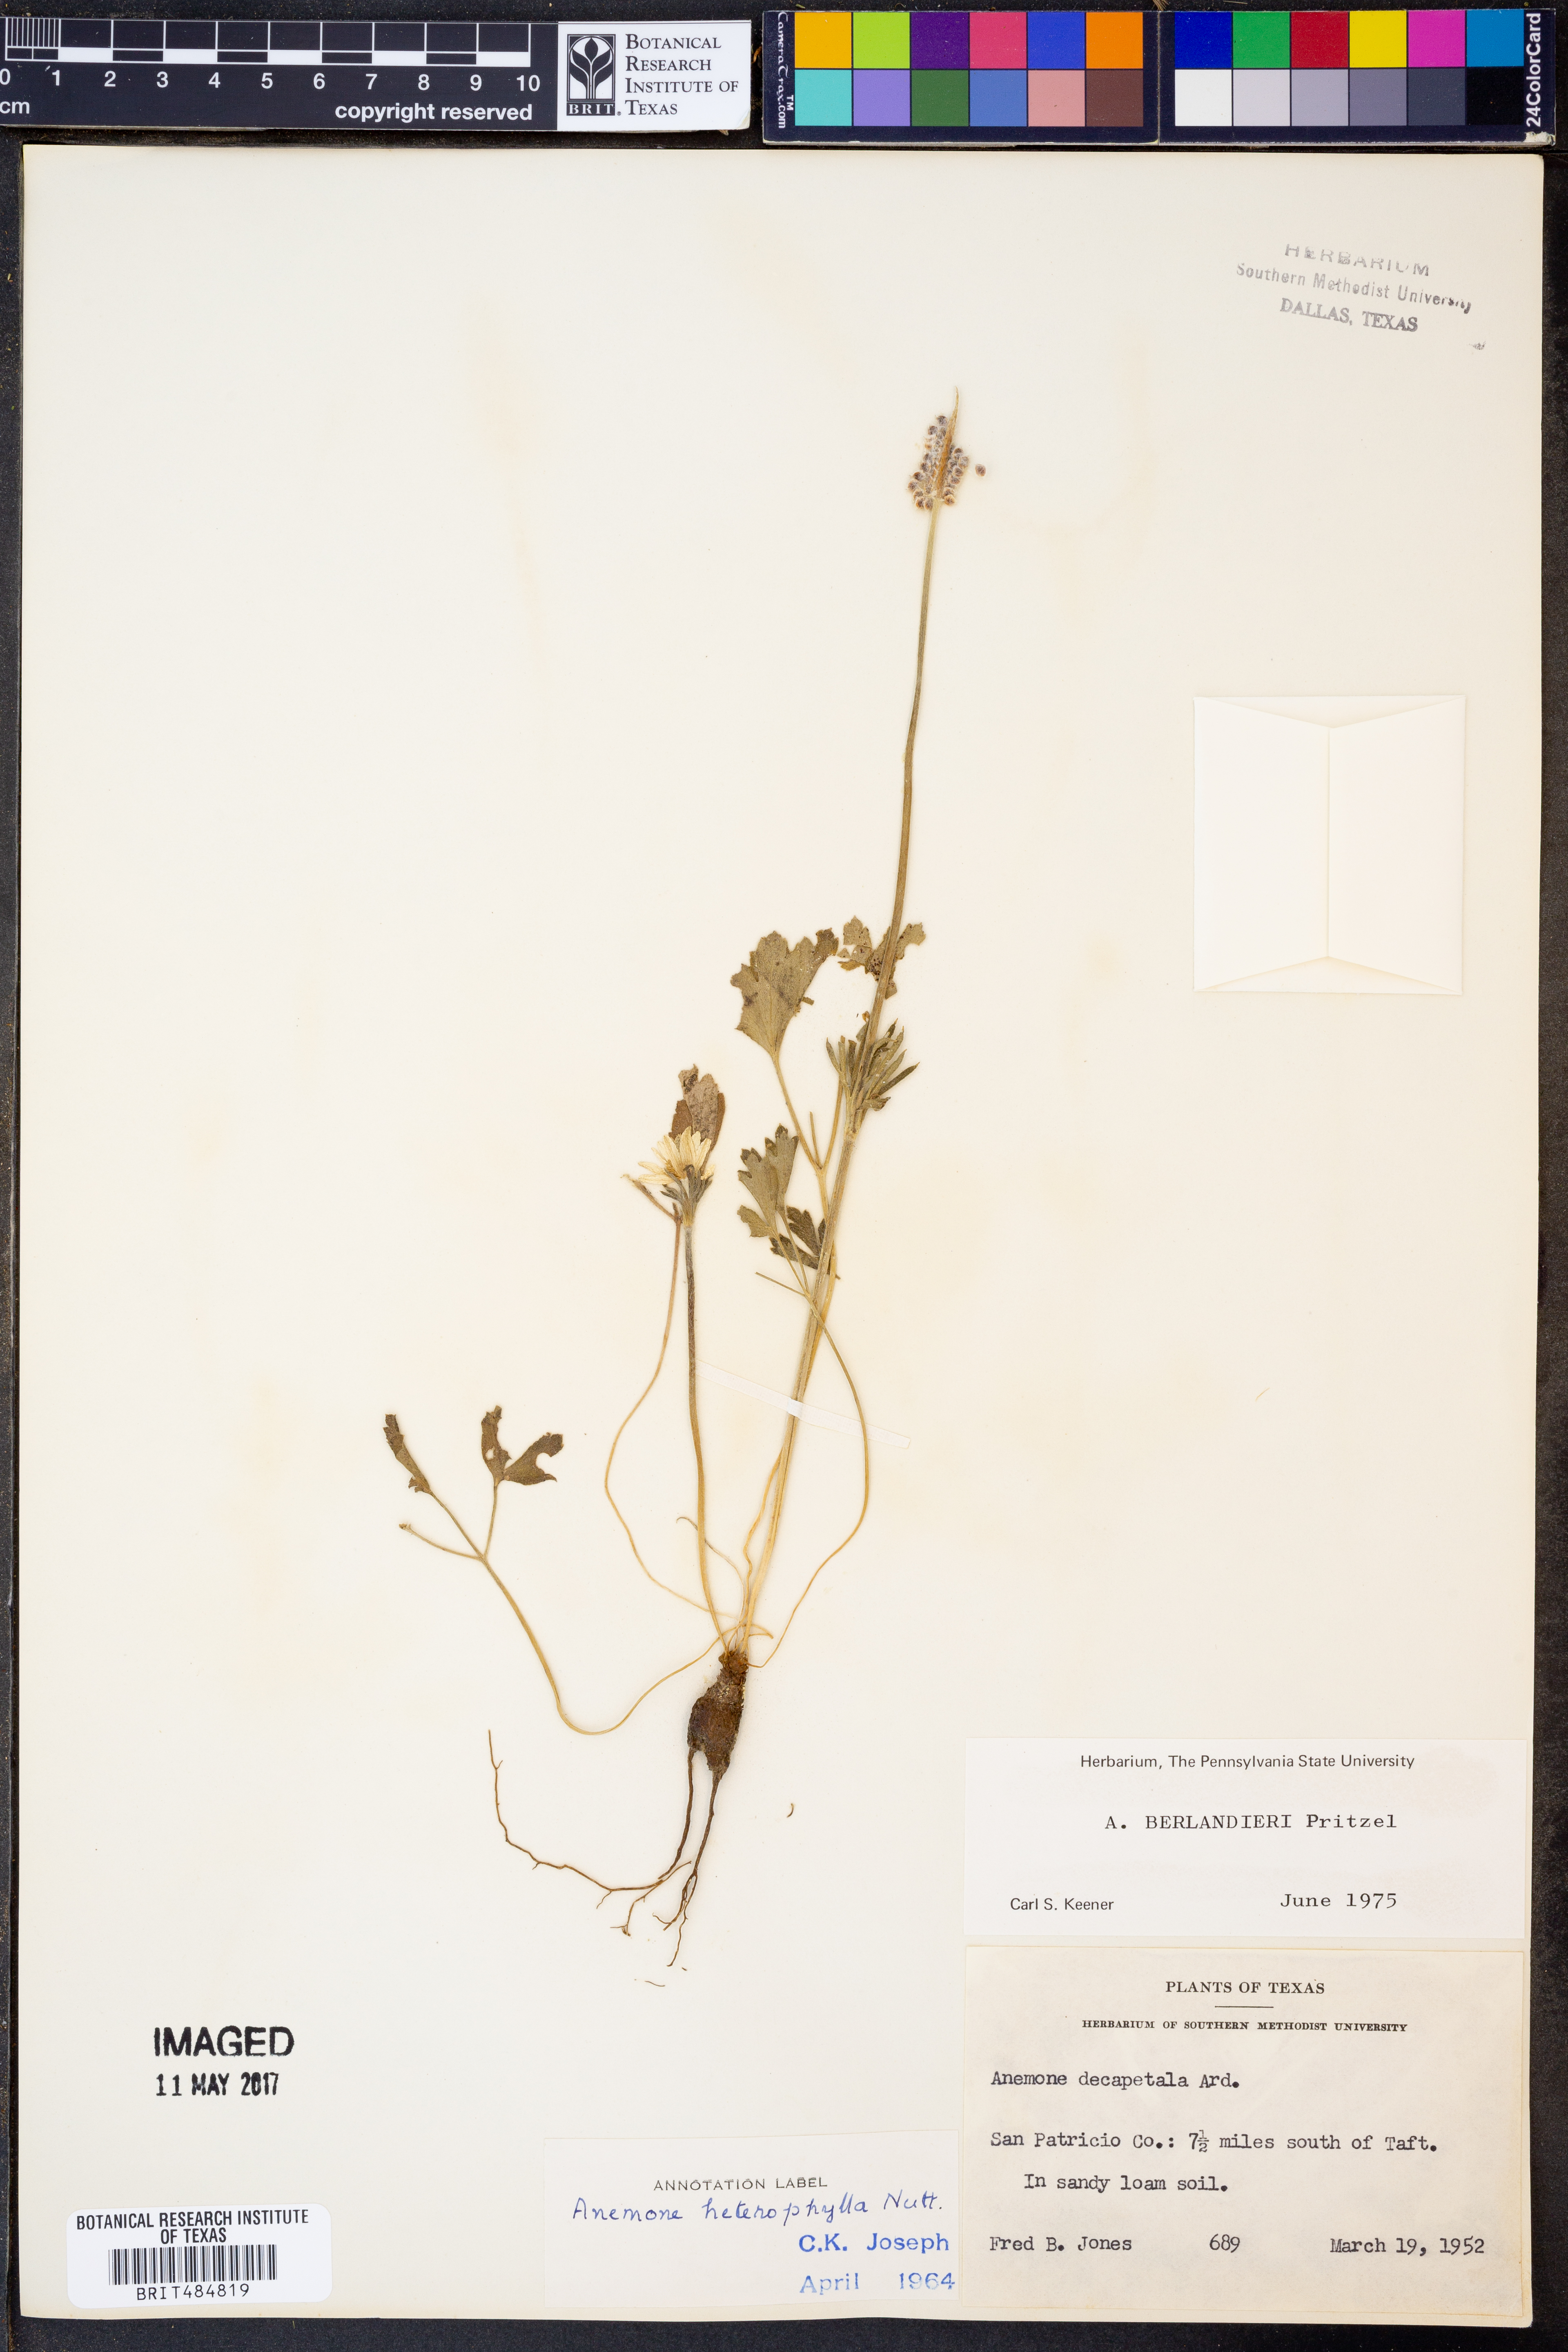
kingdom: Plantae
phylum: Tracheophyta
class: Magnoliopsida
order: Ranunculales
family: Ranunculaceae
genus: Anemone
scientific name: Anemone berlandieri
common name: Ten-petal anemone
